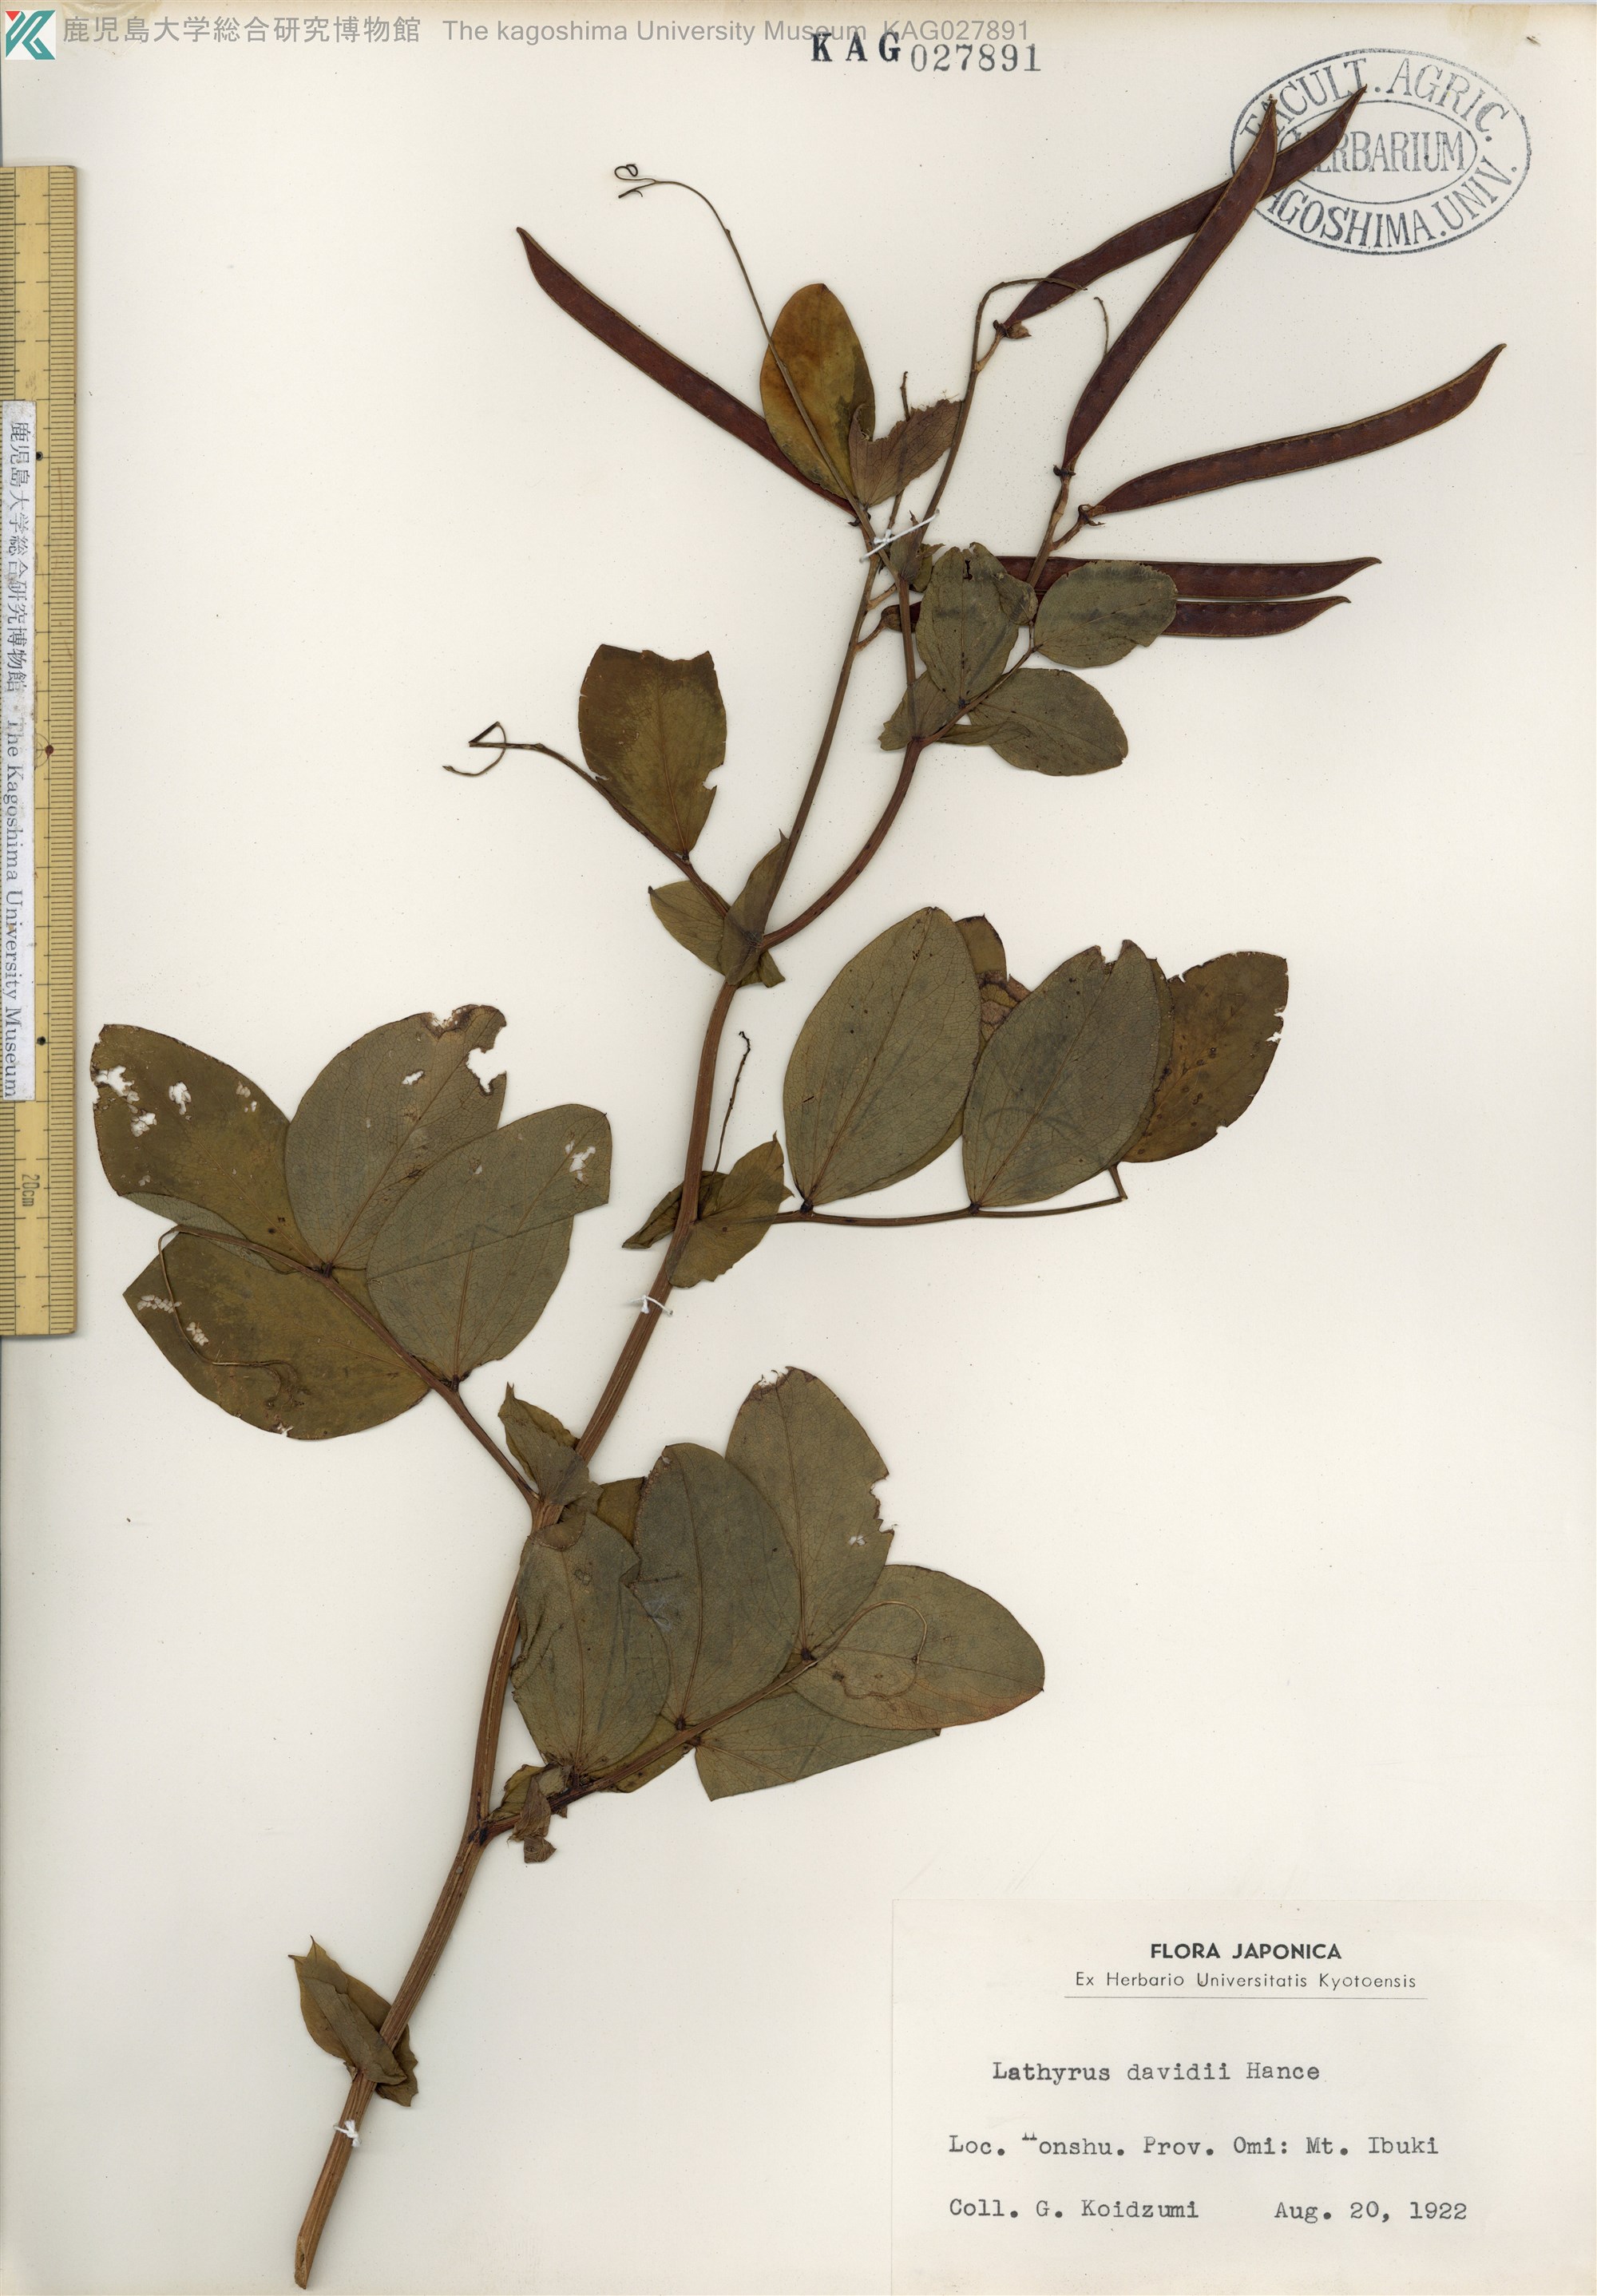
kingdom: Plantae
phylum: Tracheophyta
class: Magnoliopsida
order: Fabales
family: Fabaceae
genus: Lathyrus
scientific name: Lathyrus davidii
